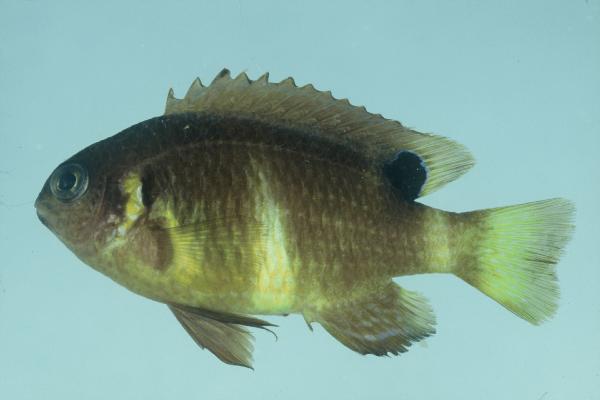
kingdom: Animalia
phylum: Chordata
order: Perciformes
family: Pomacentridae
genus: Chrysiptera
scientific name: Chrysiptera brownriggii
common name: Surge demoiselle
